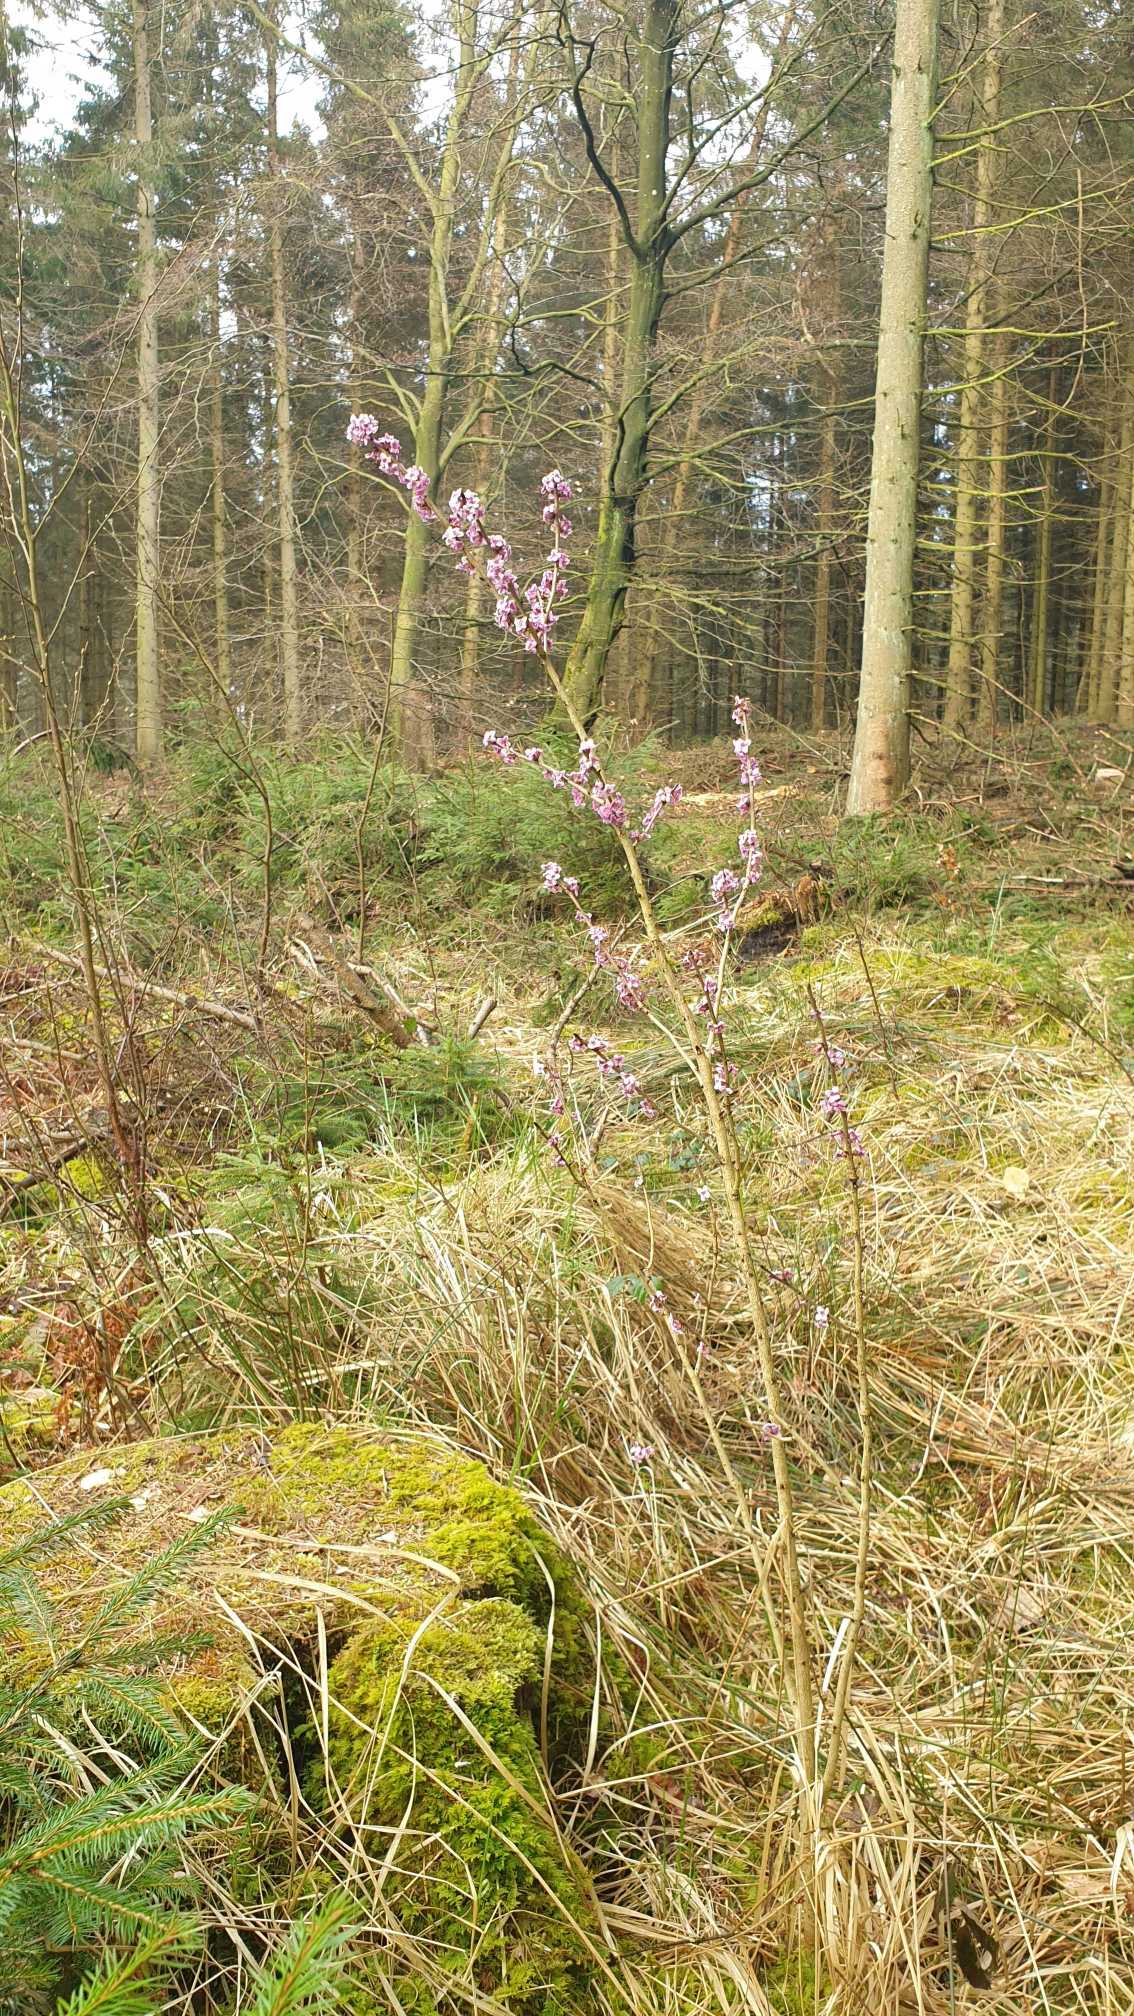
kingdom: Plantae
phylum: Tracheophyta
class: Magnoliopsida
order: Malvales
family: Thymelaeaceae
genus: Daphne
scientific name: Daphne mezereum
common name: Pebertræ
